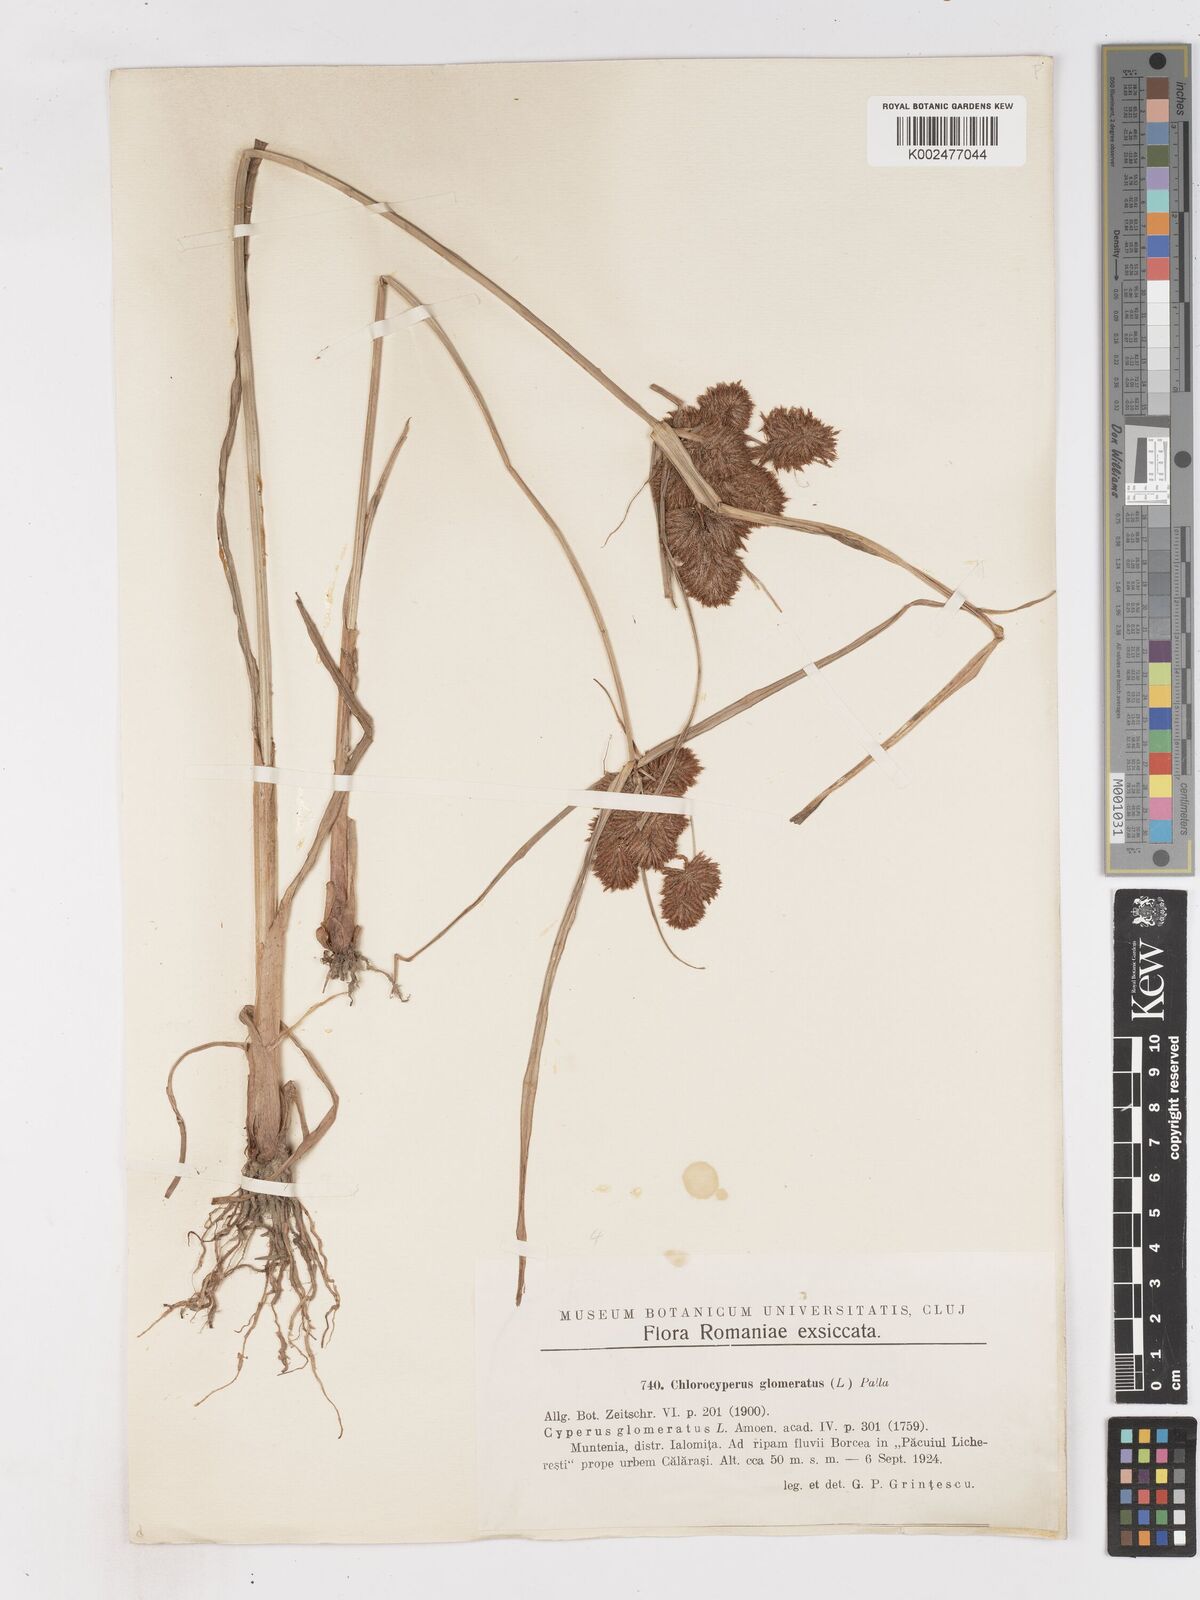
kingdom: Plantae
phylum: Tracheophyta
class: Liliopsida
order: Poales
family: Cyperaceae
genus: Cyperus
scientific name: Cyperus glomeratus
